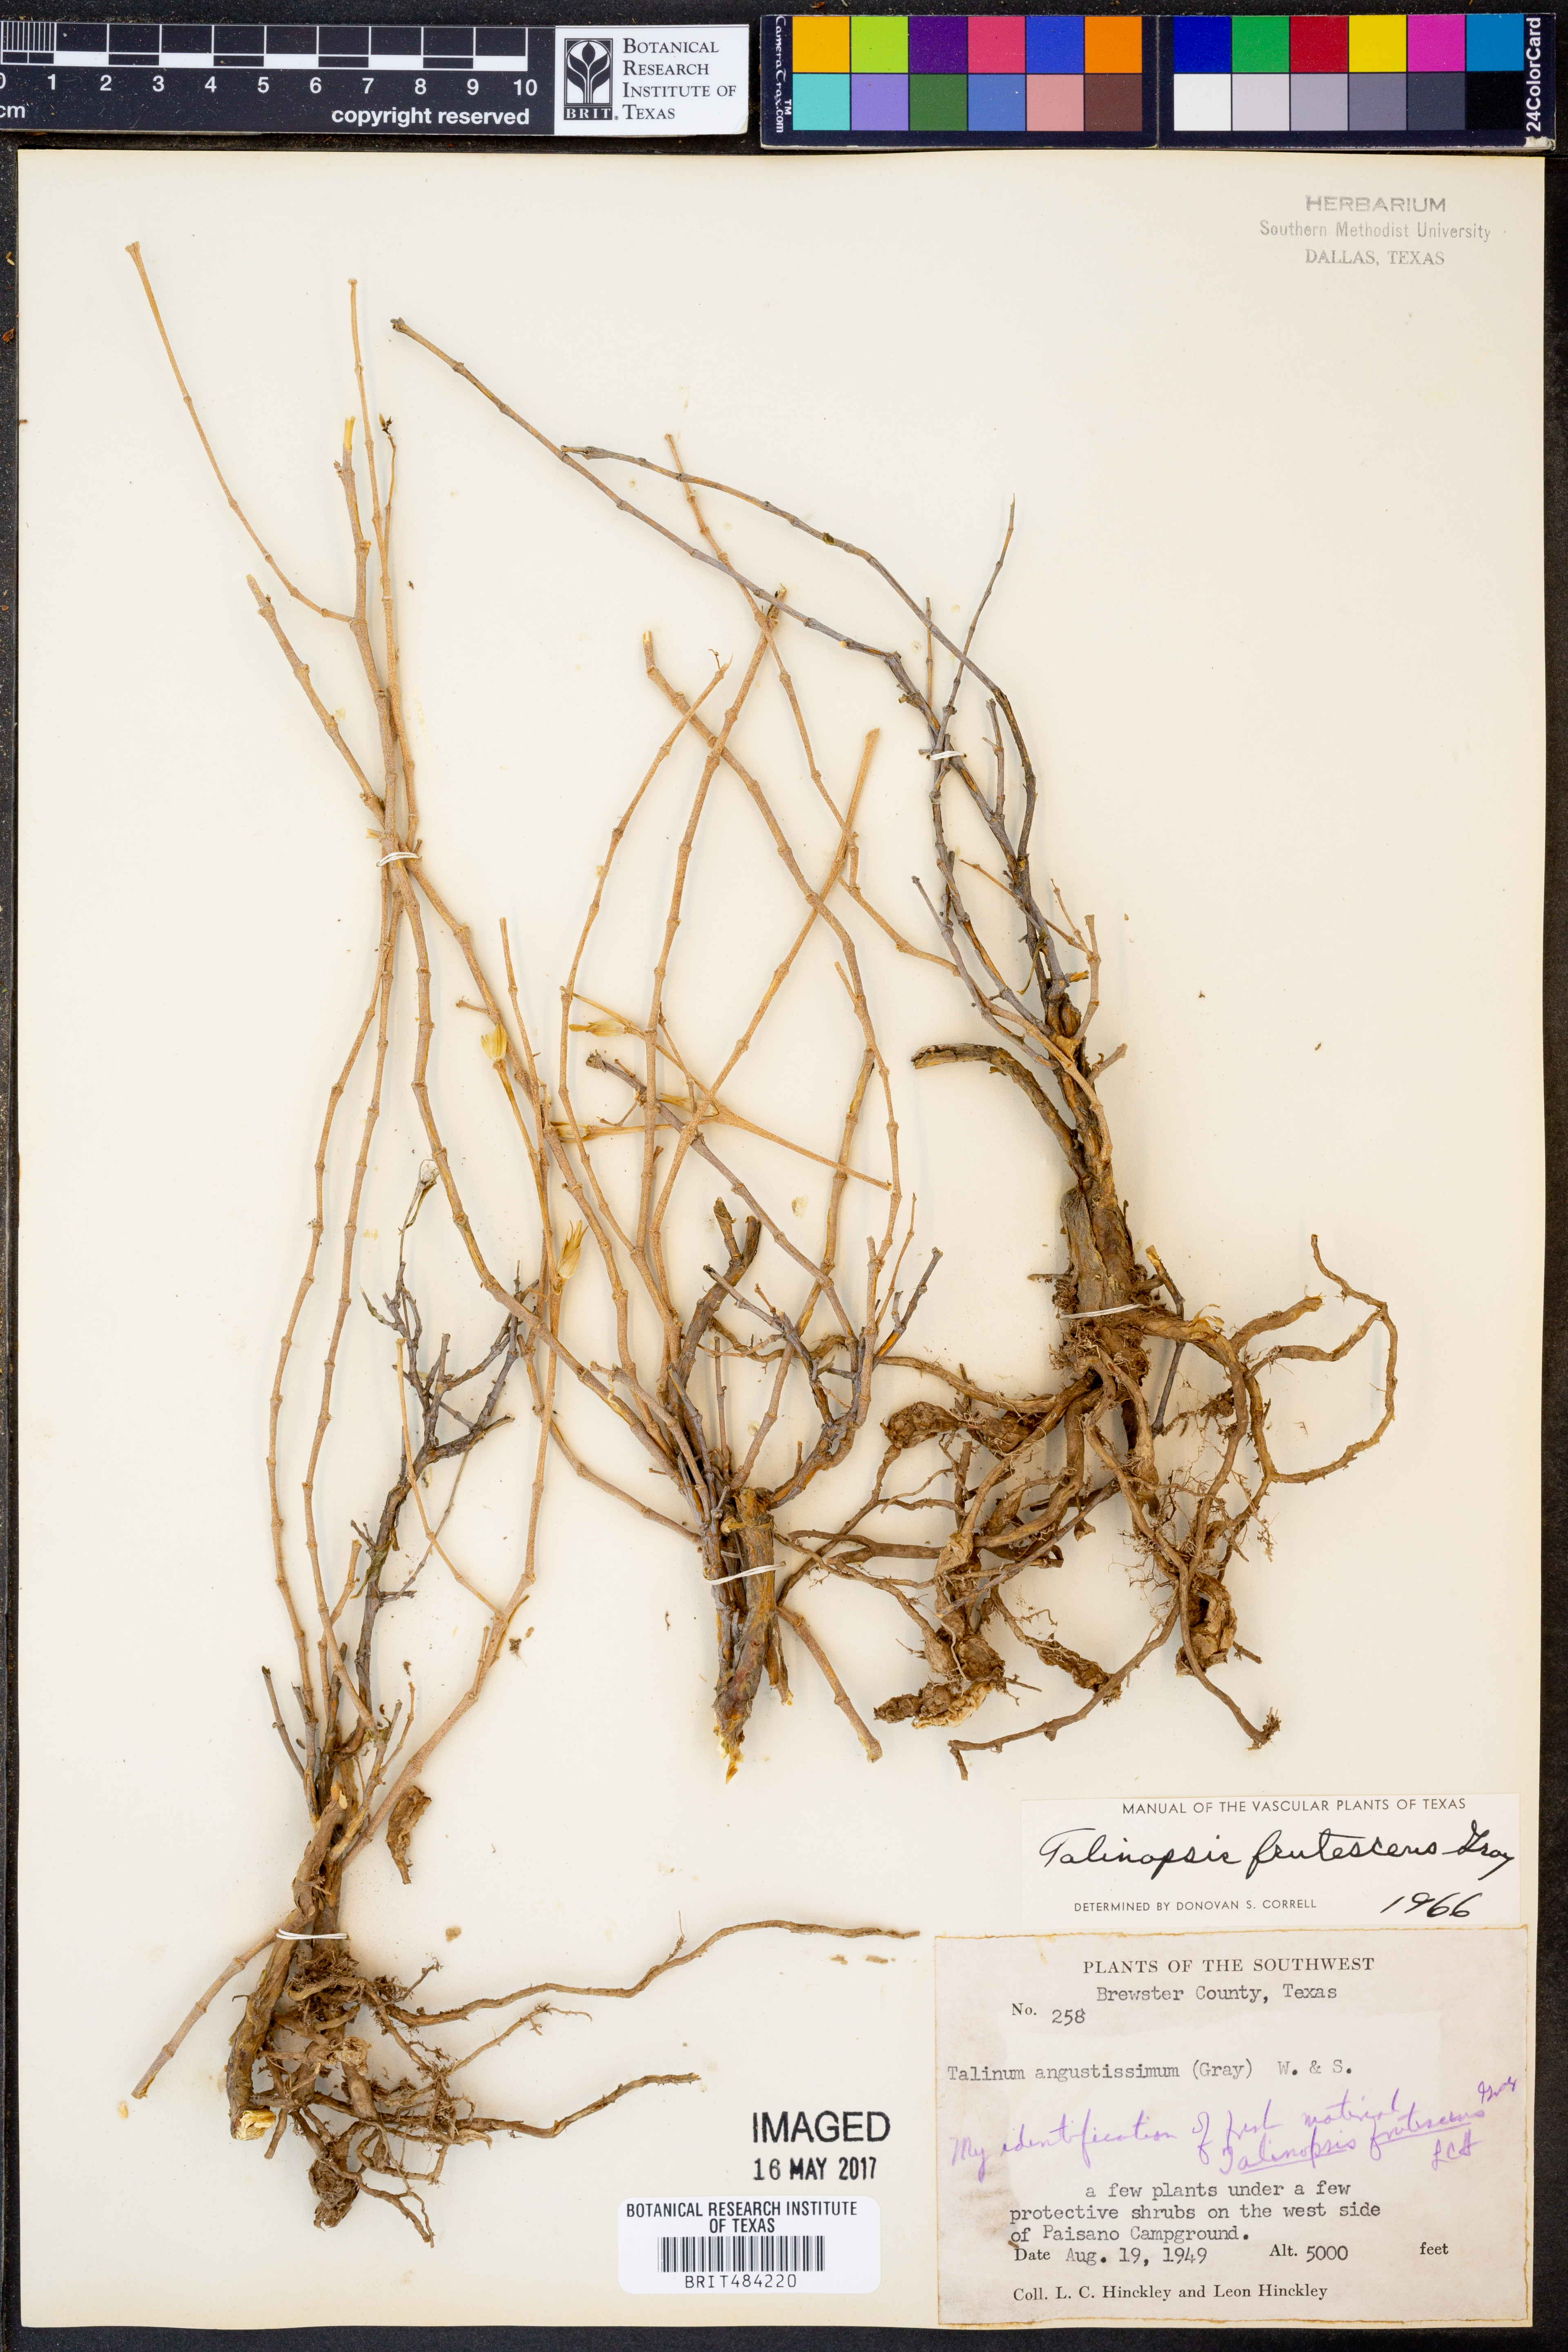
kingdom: Plantae
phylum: Tracheophyta
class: Magnoliopsida
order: Caryophyllales
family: Anacampserotaceae
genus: Grahamia
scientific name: Grahamia frutescens
